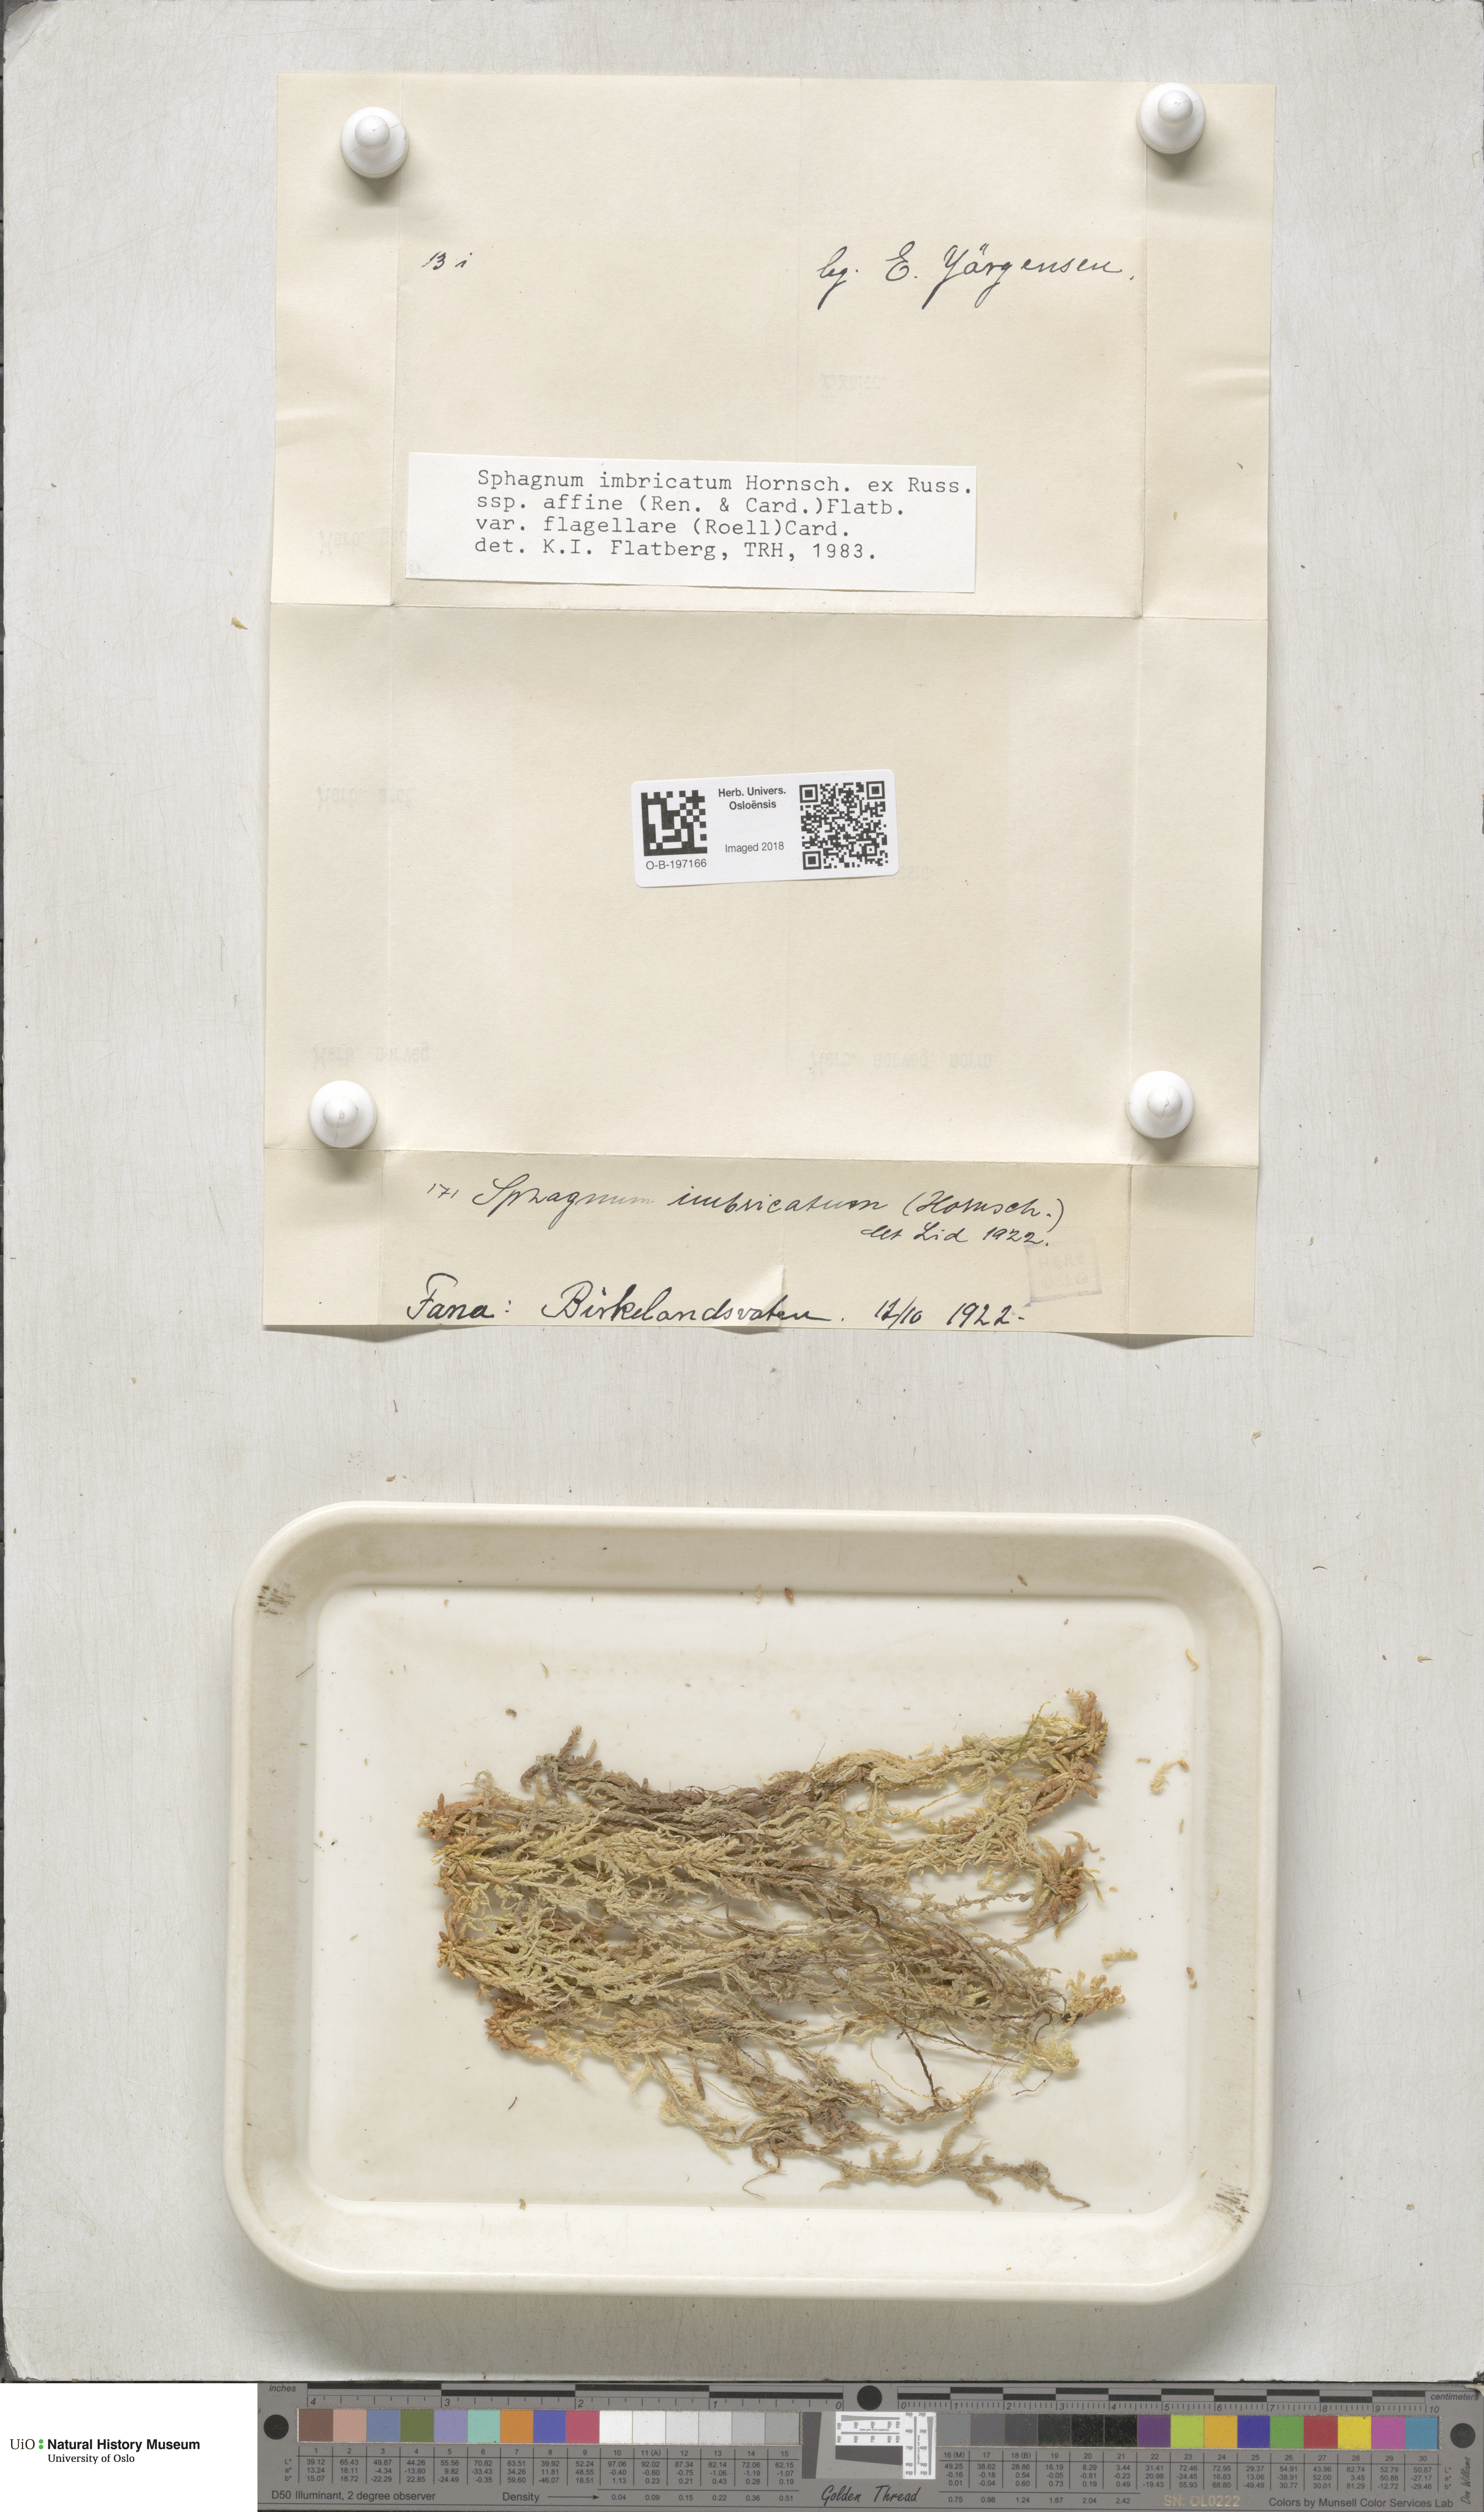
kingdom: Plantae
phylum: Bryophyta
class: Sphagnopsida
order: Sphagnales
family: Sphagnaceae
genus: Sphagnum
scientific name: Sphagnum affine
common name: Imbricate peat moss
